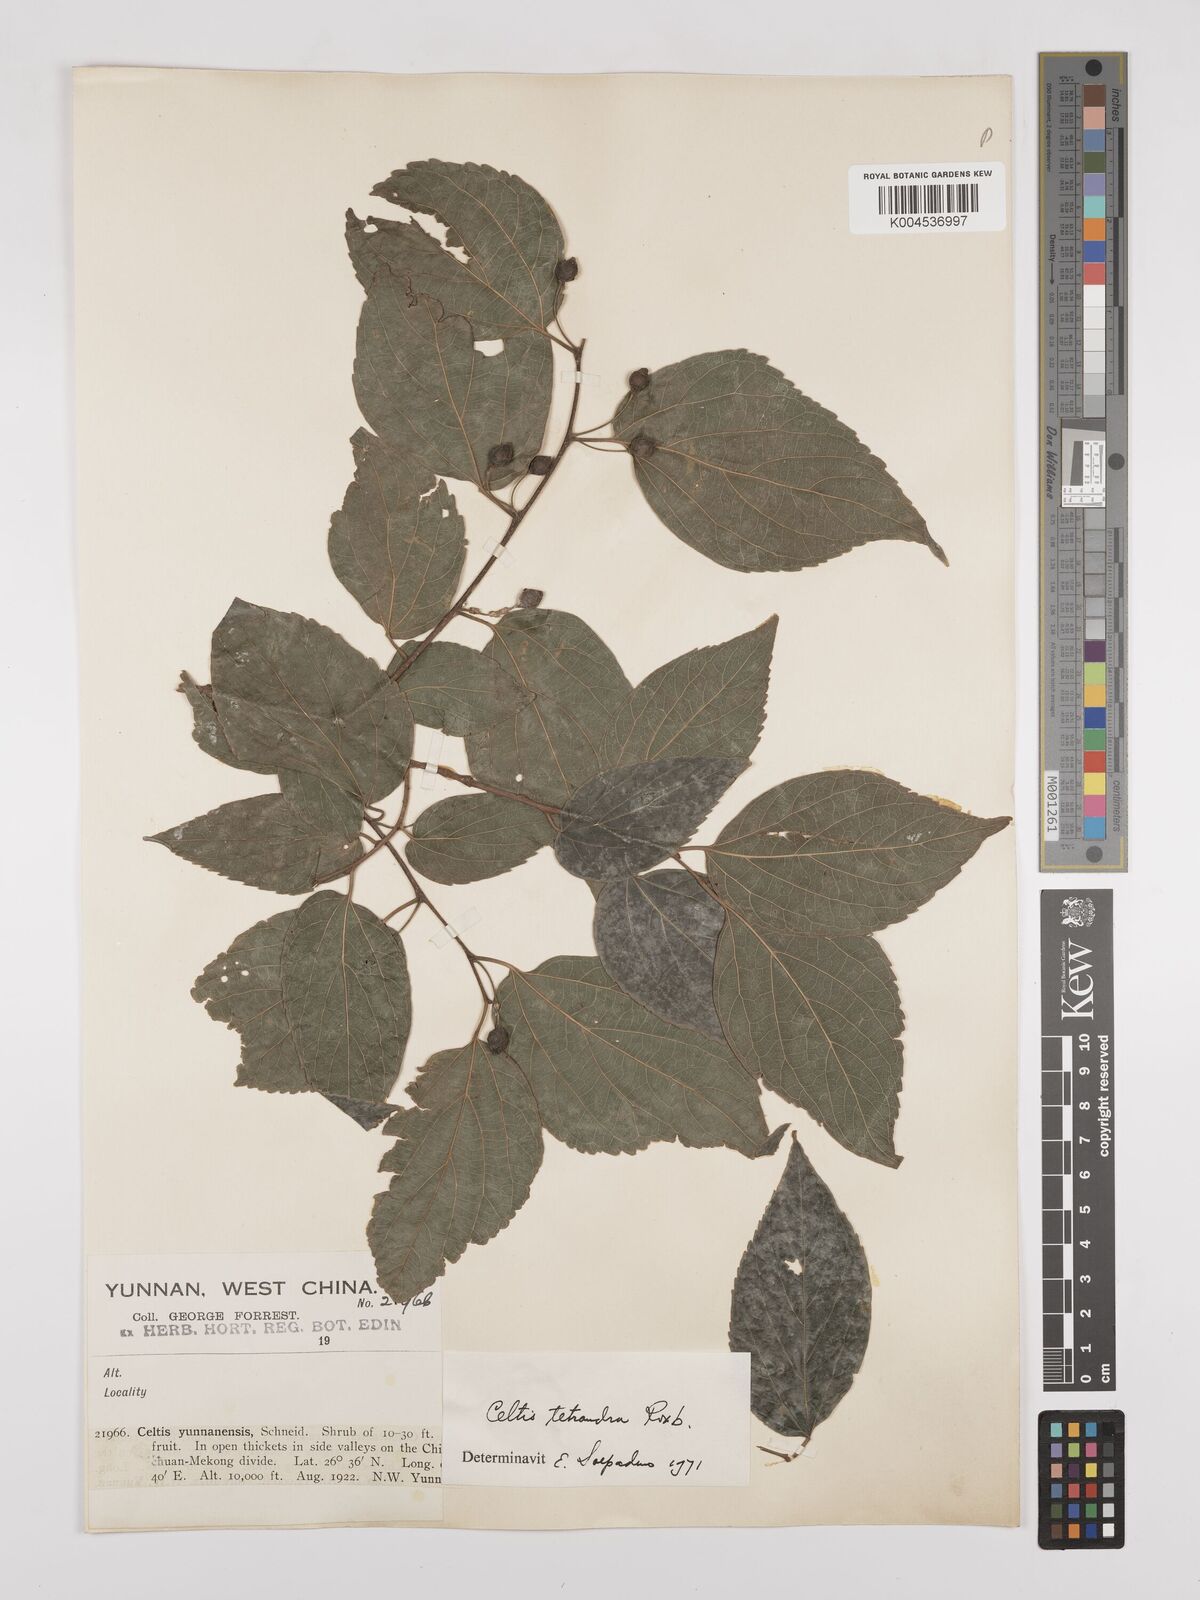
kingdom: Plantae
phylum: Tracheophyta
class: Magnoliopsida
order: Rosales
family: Cannabaceae
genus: Celtis
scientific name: Celtis tetrandra
